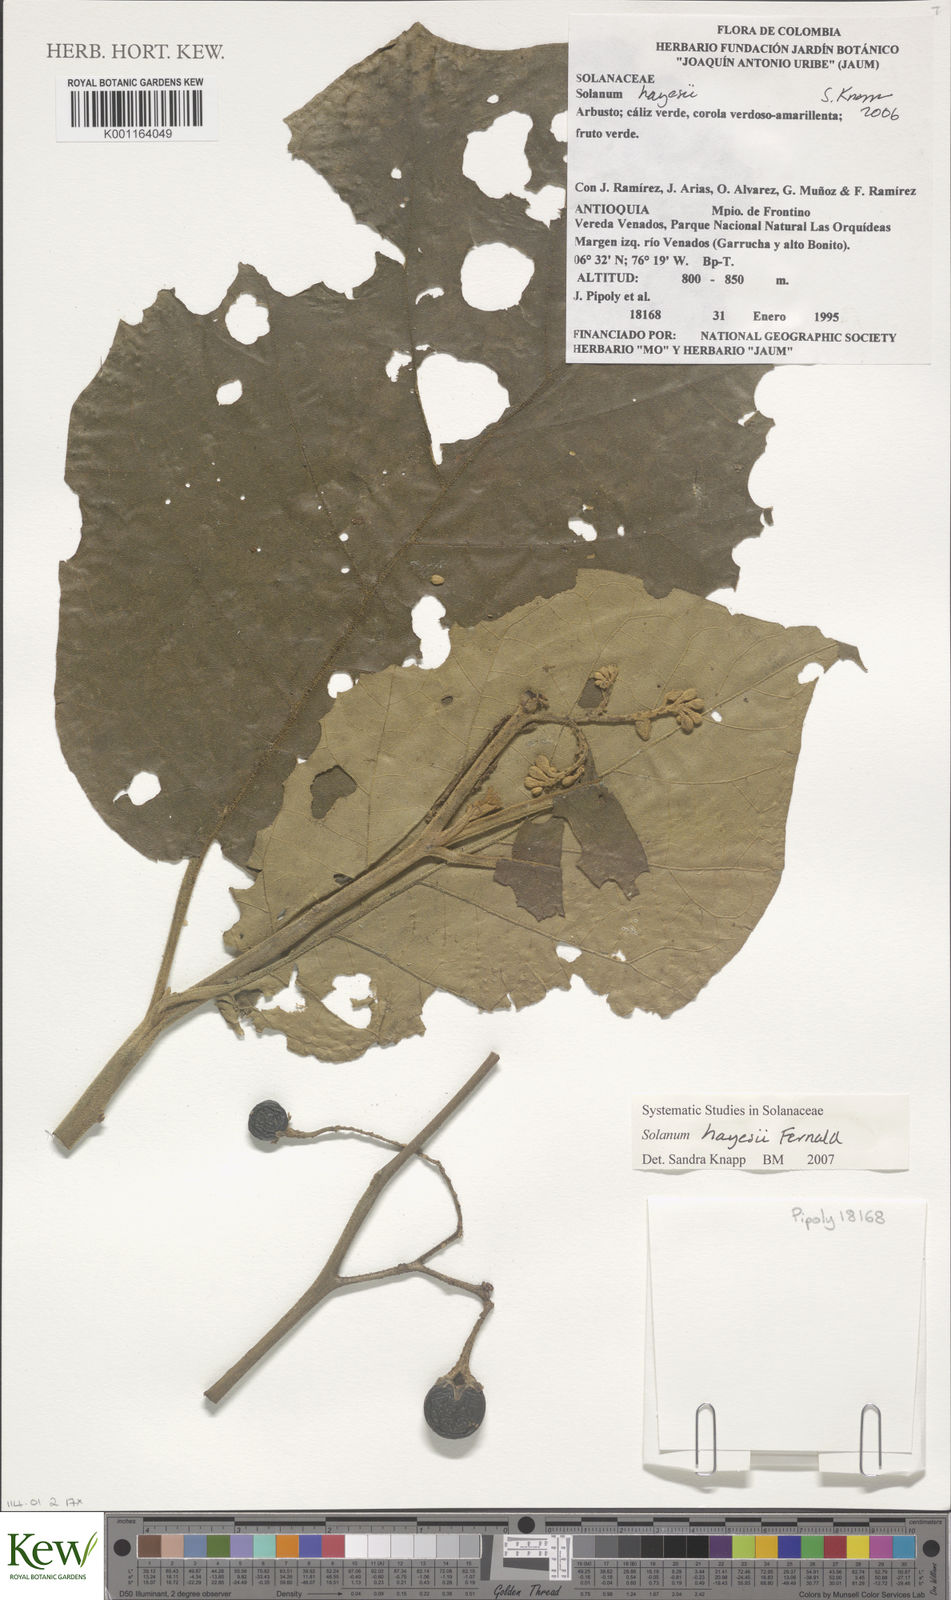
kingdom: Plantae
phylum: Tracheophyta
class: Magnoliopsida
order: Solanales
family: Solanaceae
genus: Solanum
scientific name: Solanum hayesii
